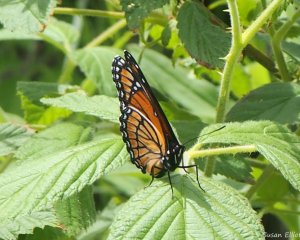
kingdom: Animalia
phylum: Arthropoda
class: Insecta
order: Lepidoptera
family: Nymphalidae
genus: Limenitis
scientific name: Limenitis archippus
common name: Viceroy
